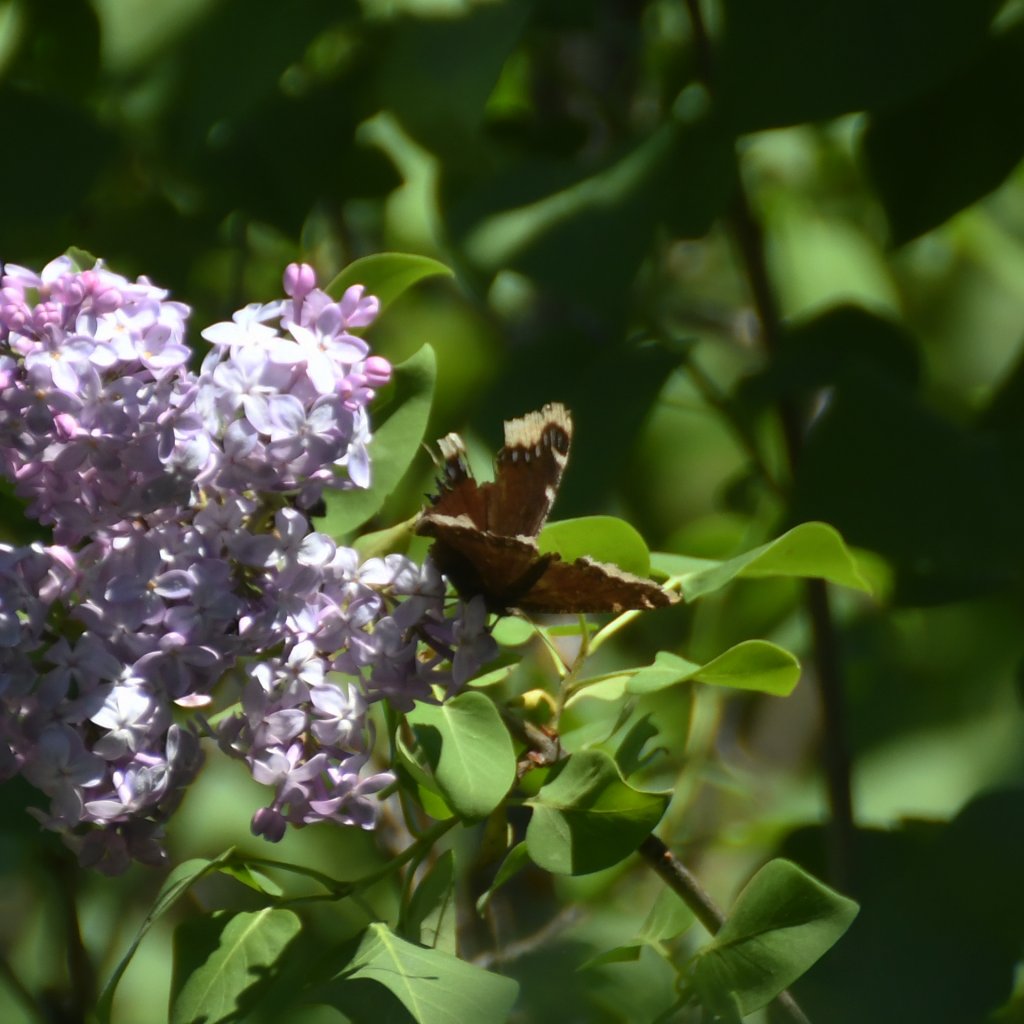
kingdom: Animalia
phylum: Arthropoda
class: Insecta
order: Lepidoptera
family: Nymphalidae
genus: Nymphalis
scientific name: Nymphalis antiopa
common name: Mourning Cloak
